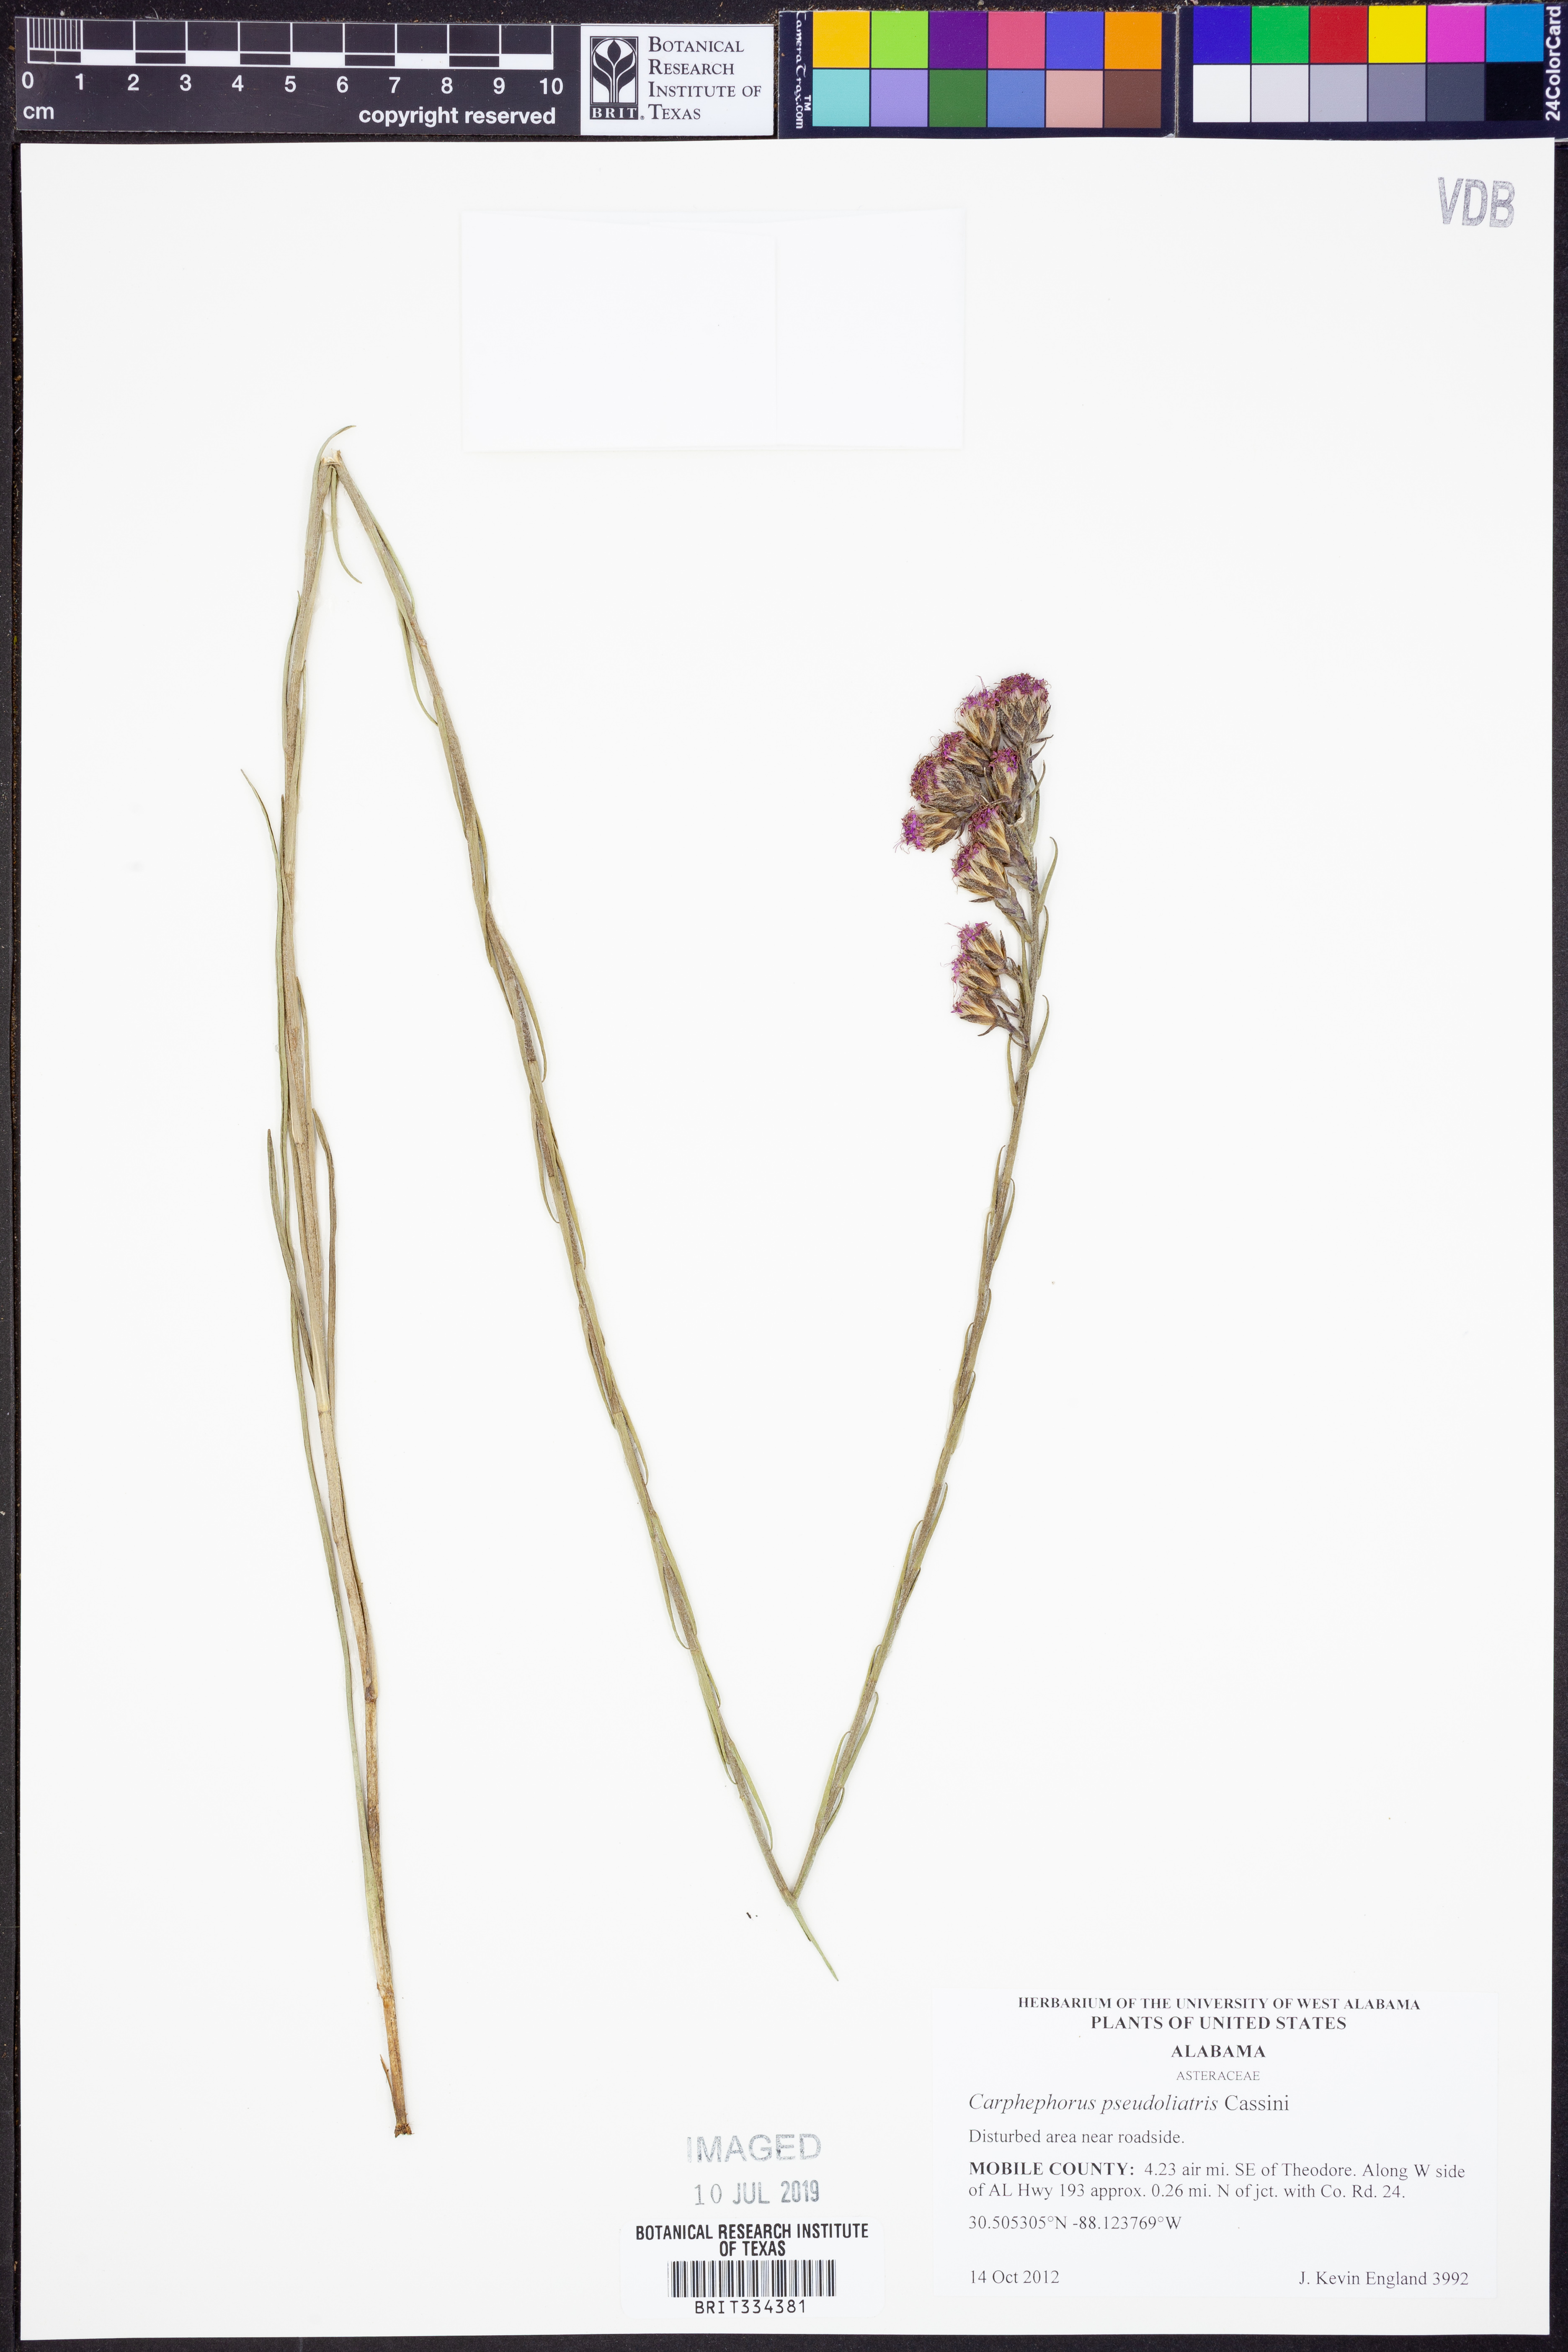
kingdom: Plantae
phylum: Tracheophyta
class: Magnoliopsida
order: Asterales
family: Asteraceae
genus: Carphephorus
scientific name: Carphephorus pseudoliatris
